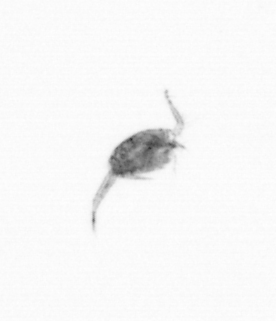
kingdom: Animalia
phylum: Arthropoda
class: Copepoda
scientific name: Copepoda
